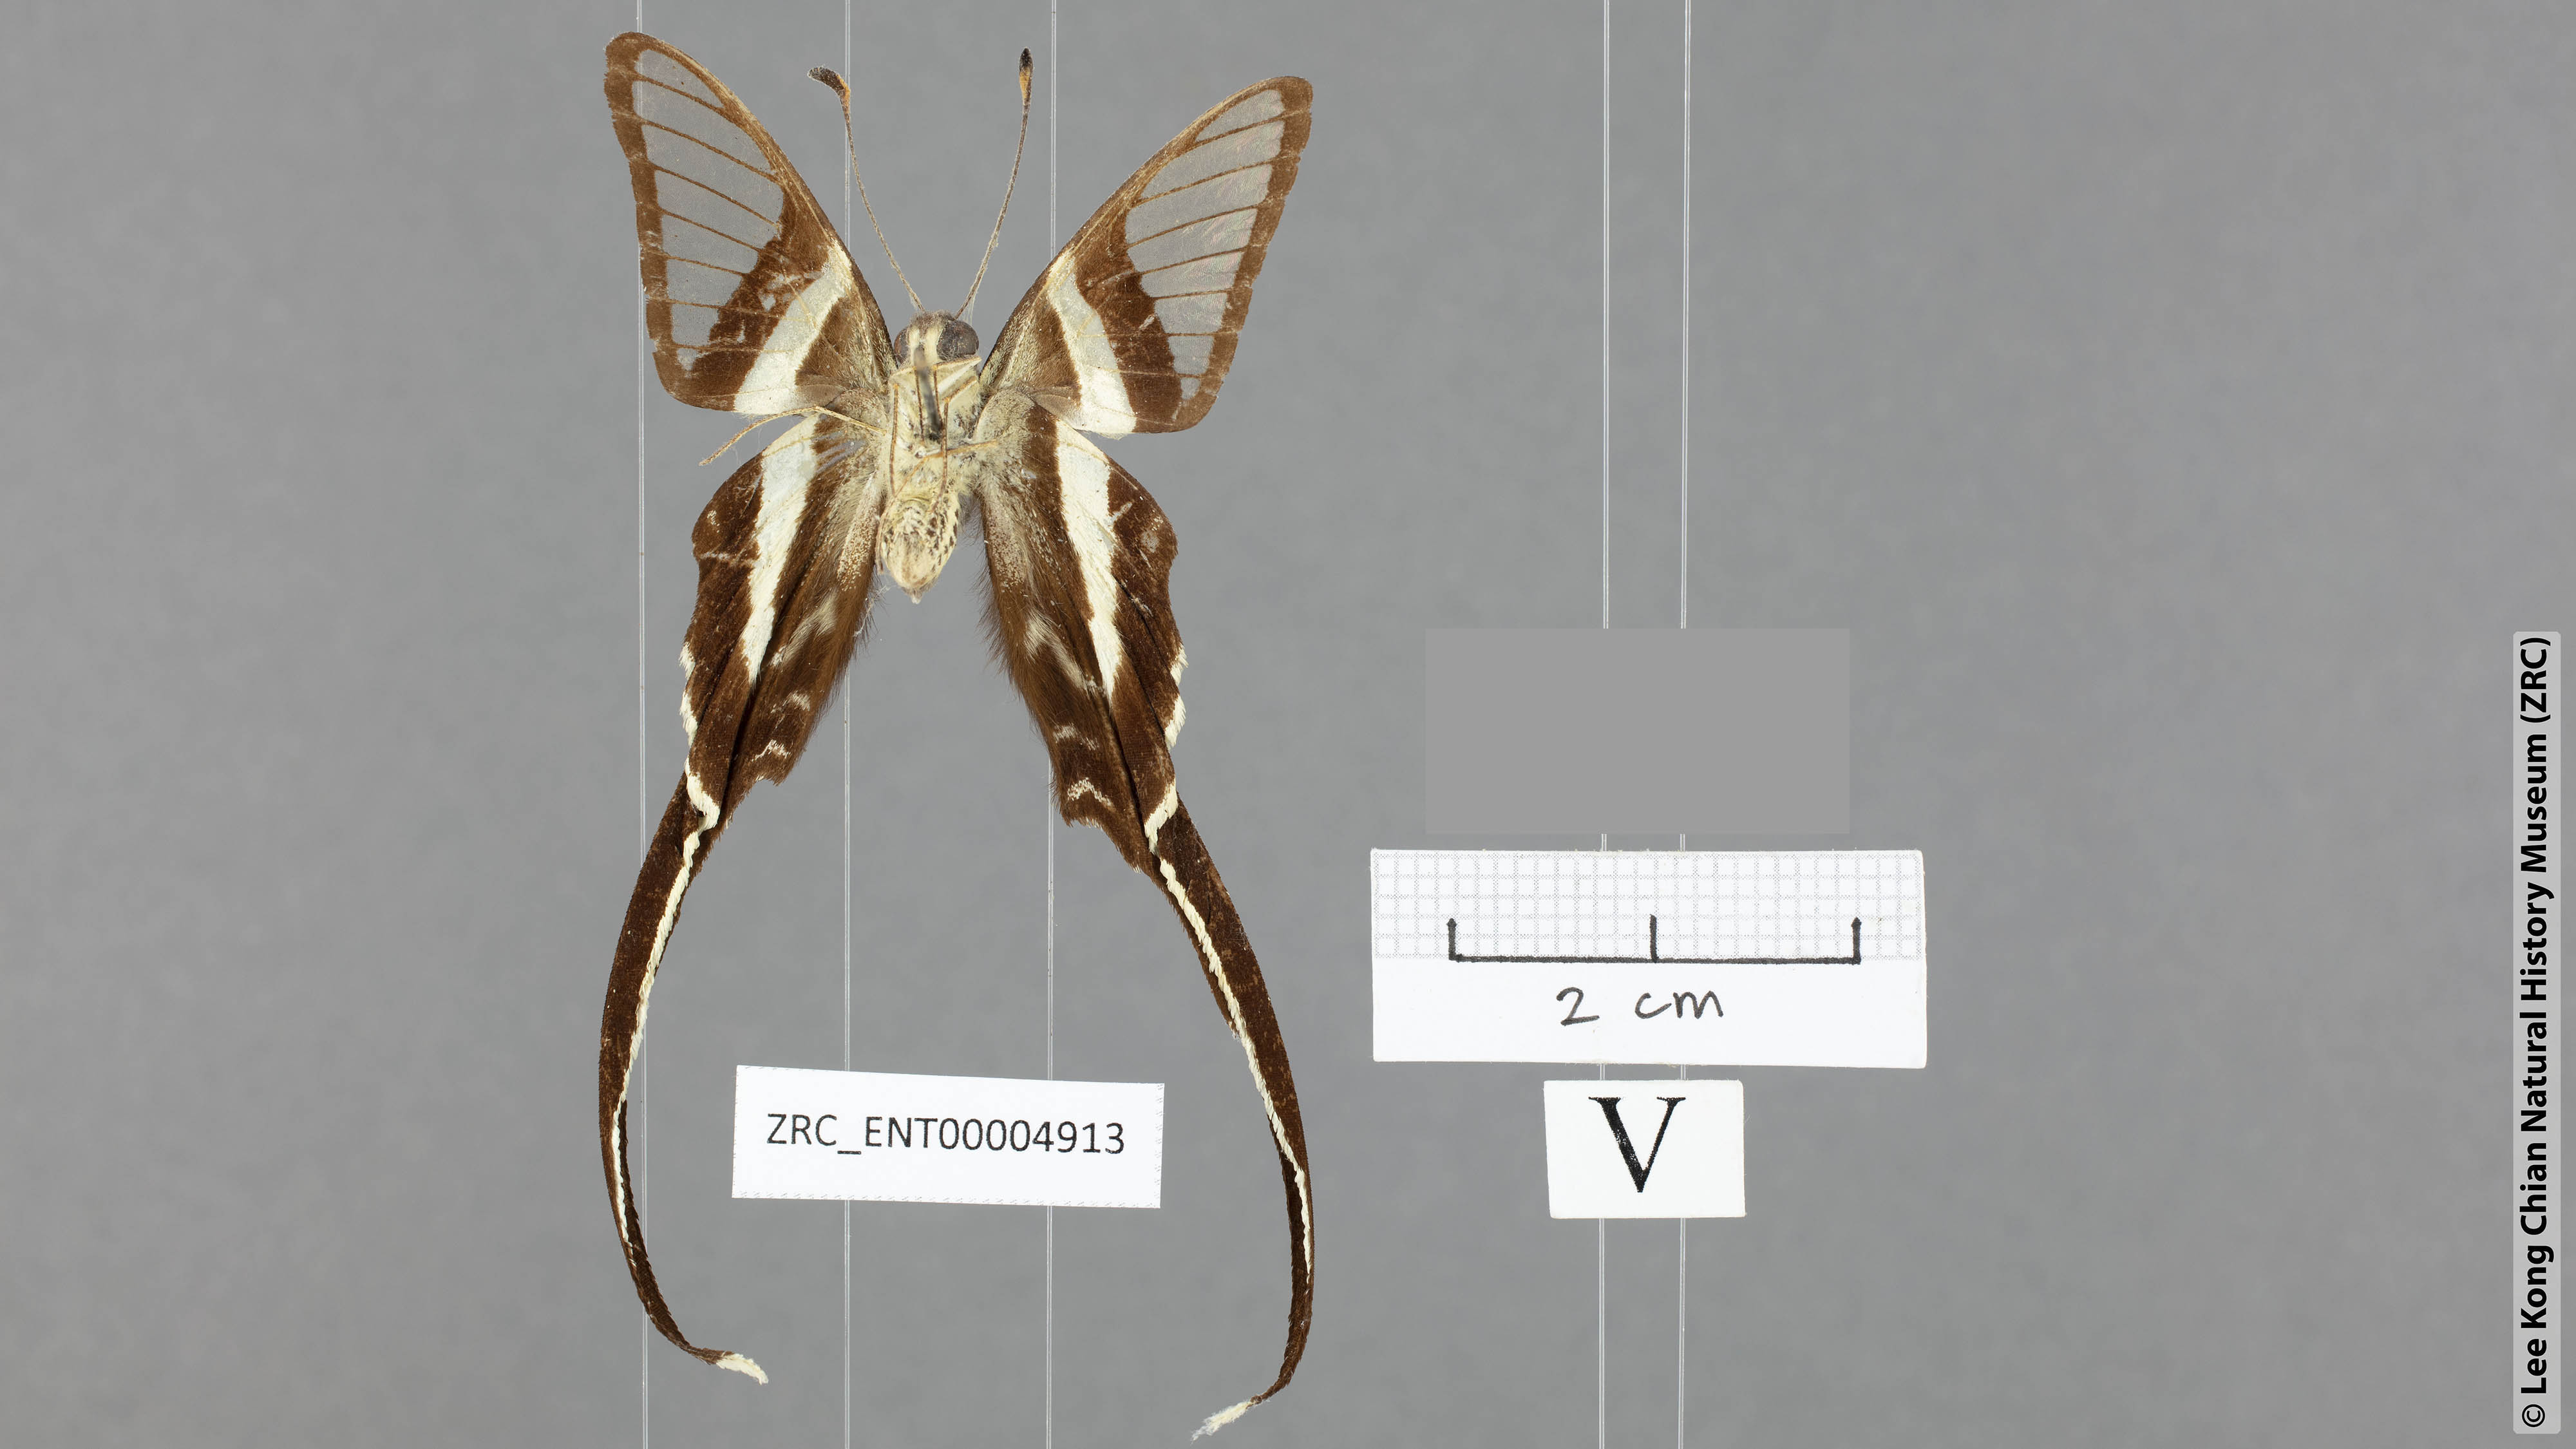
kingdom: Animalia
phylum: Arthropoda
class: Insecta
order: Lepidoptera
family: Papilionidae
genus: Lamproptera
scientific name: Lamproptera meges
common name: Green dragontail
